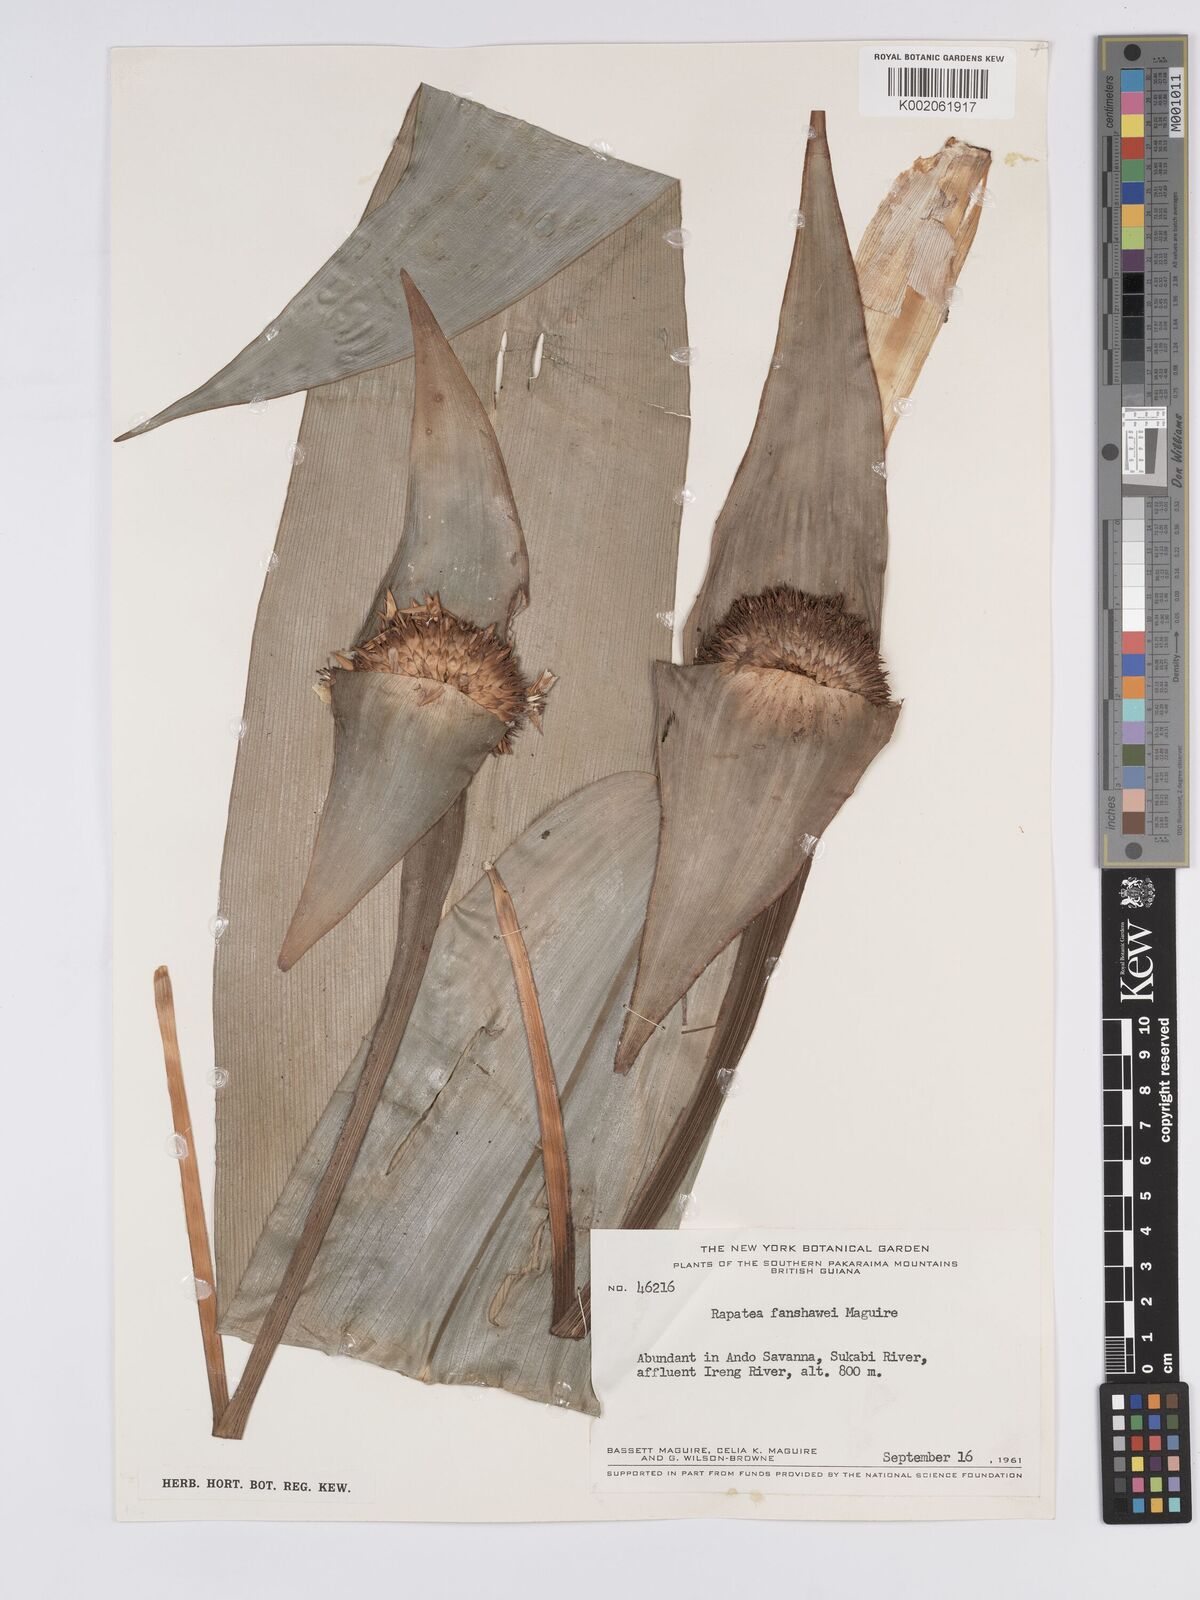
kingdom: Plantae
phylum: Tracheophyta
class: Liliopsida
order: Poales
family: Rapateaceae
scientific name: Rapateaceae
